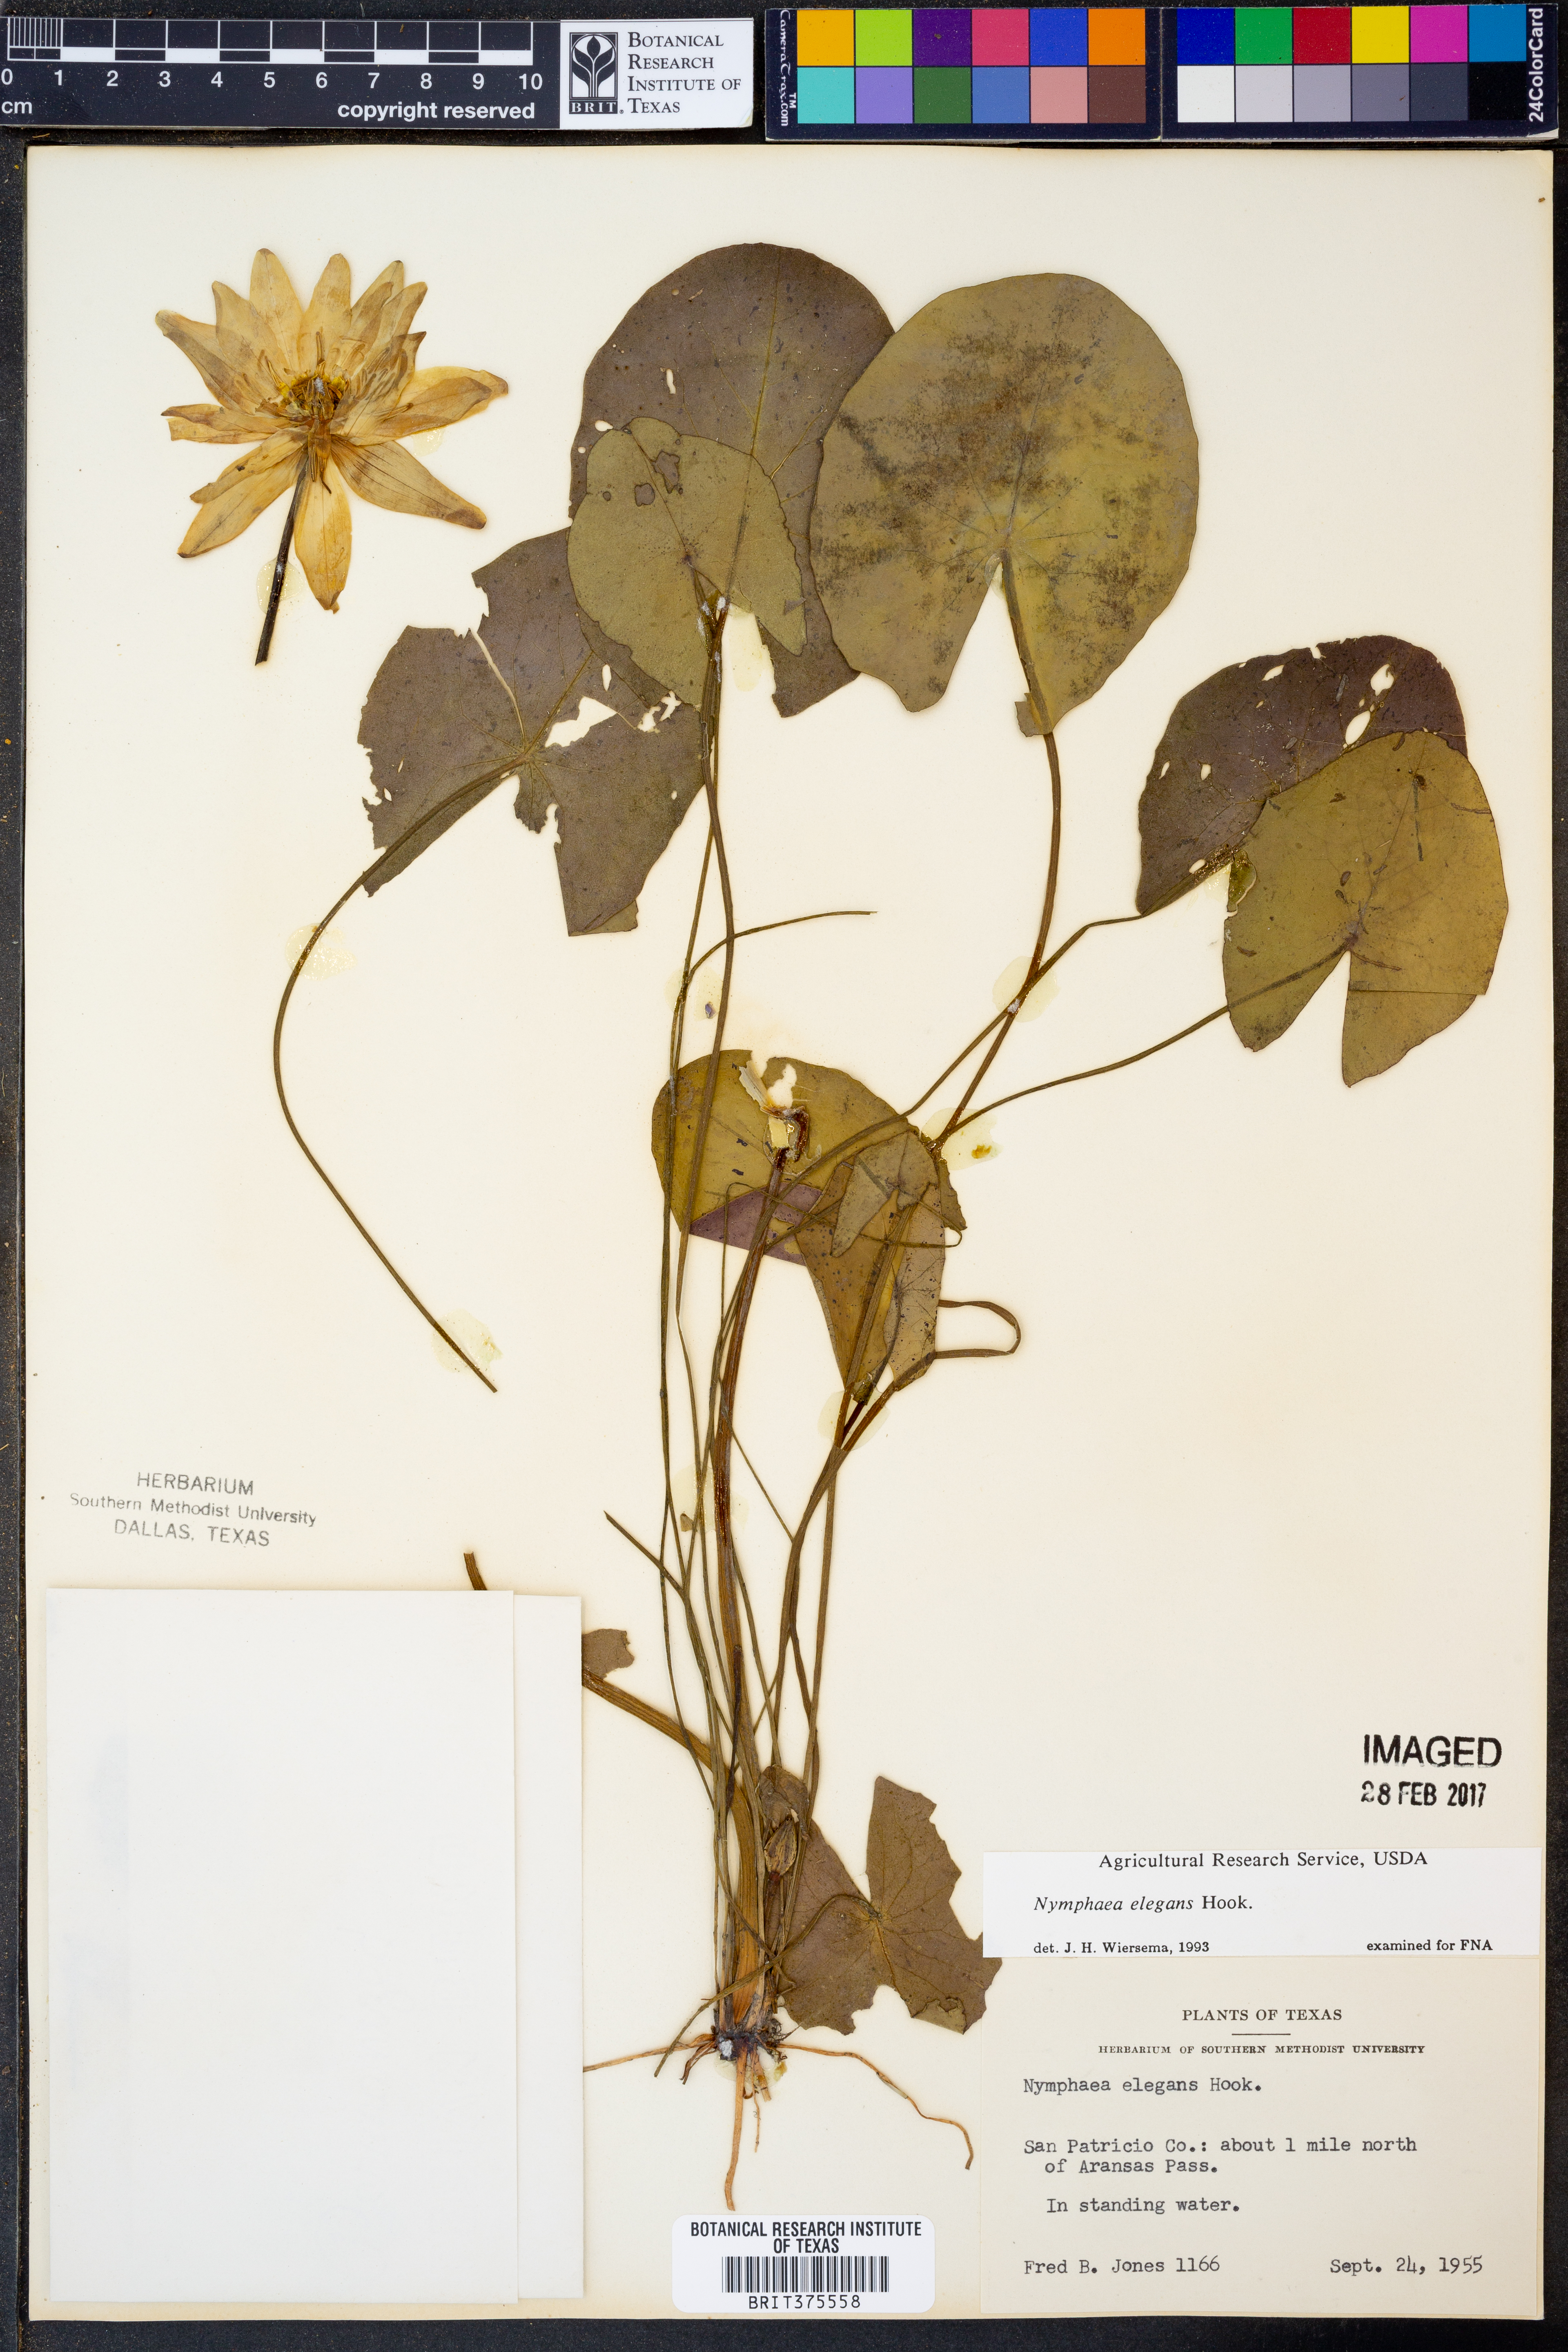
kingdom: Plantae
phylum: Tracheophyta
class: Magnoliopsida
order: Nymphaeales
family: Nymphaeaceae
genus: Nymphaea
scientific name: Nymphaea elegans
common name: Blue water-lily
